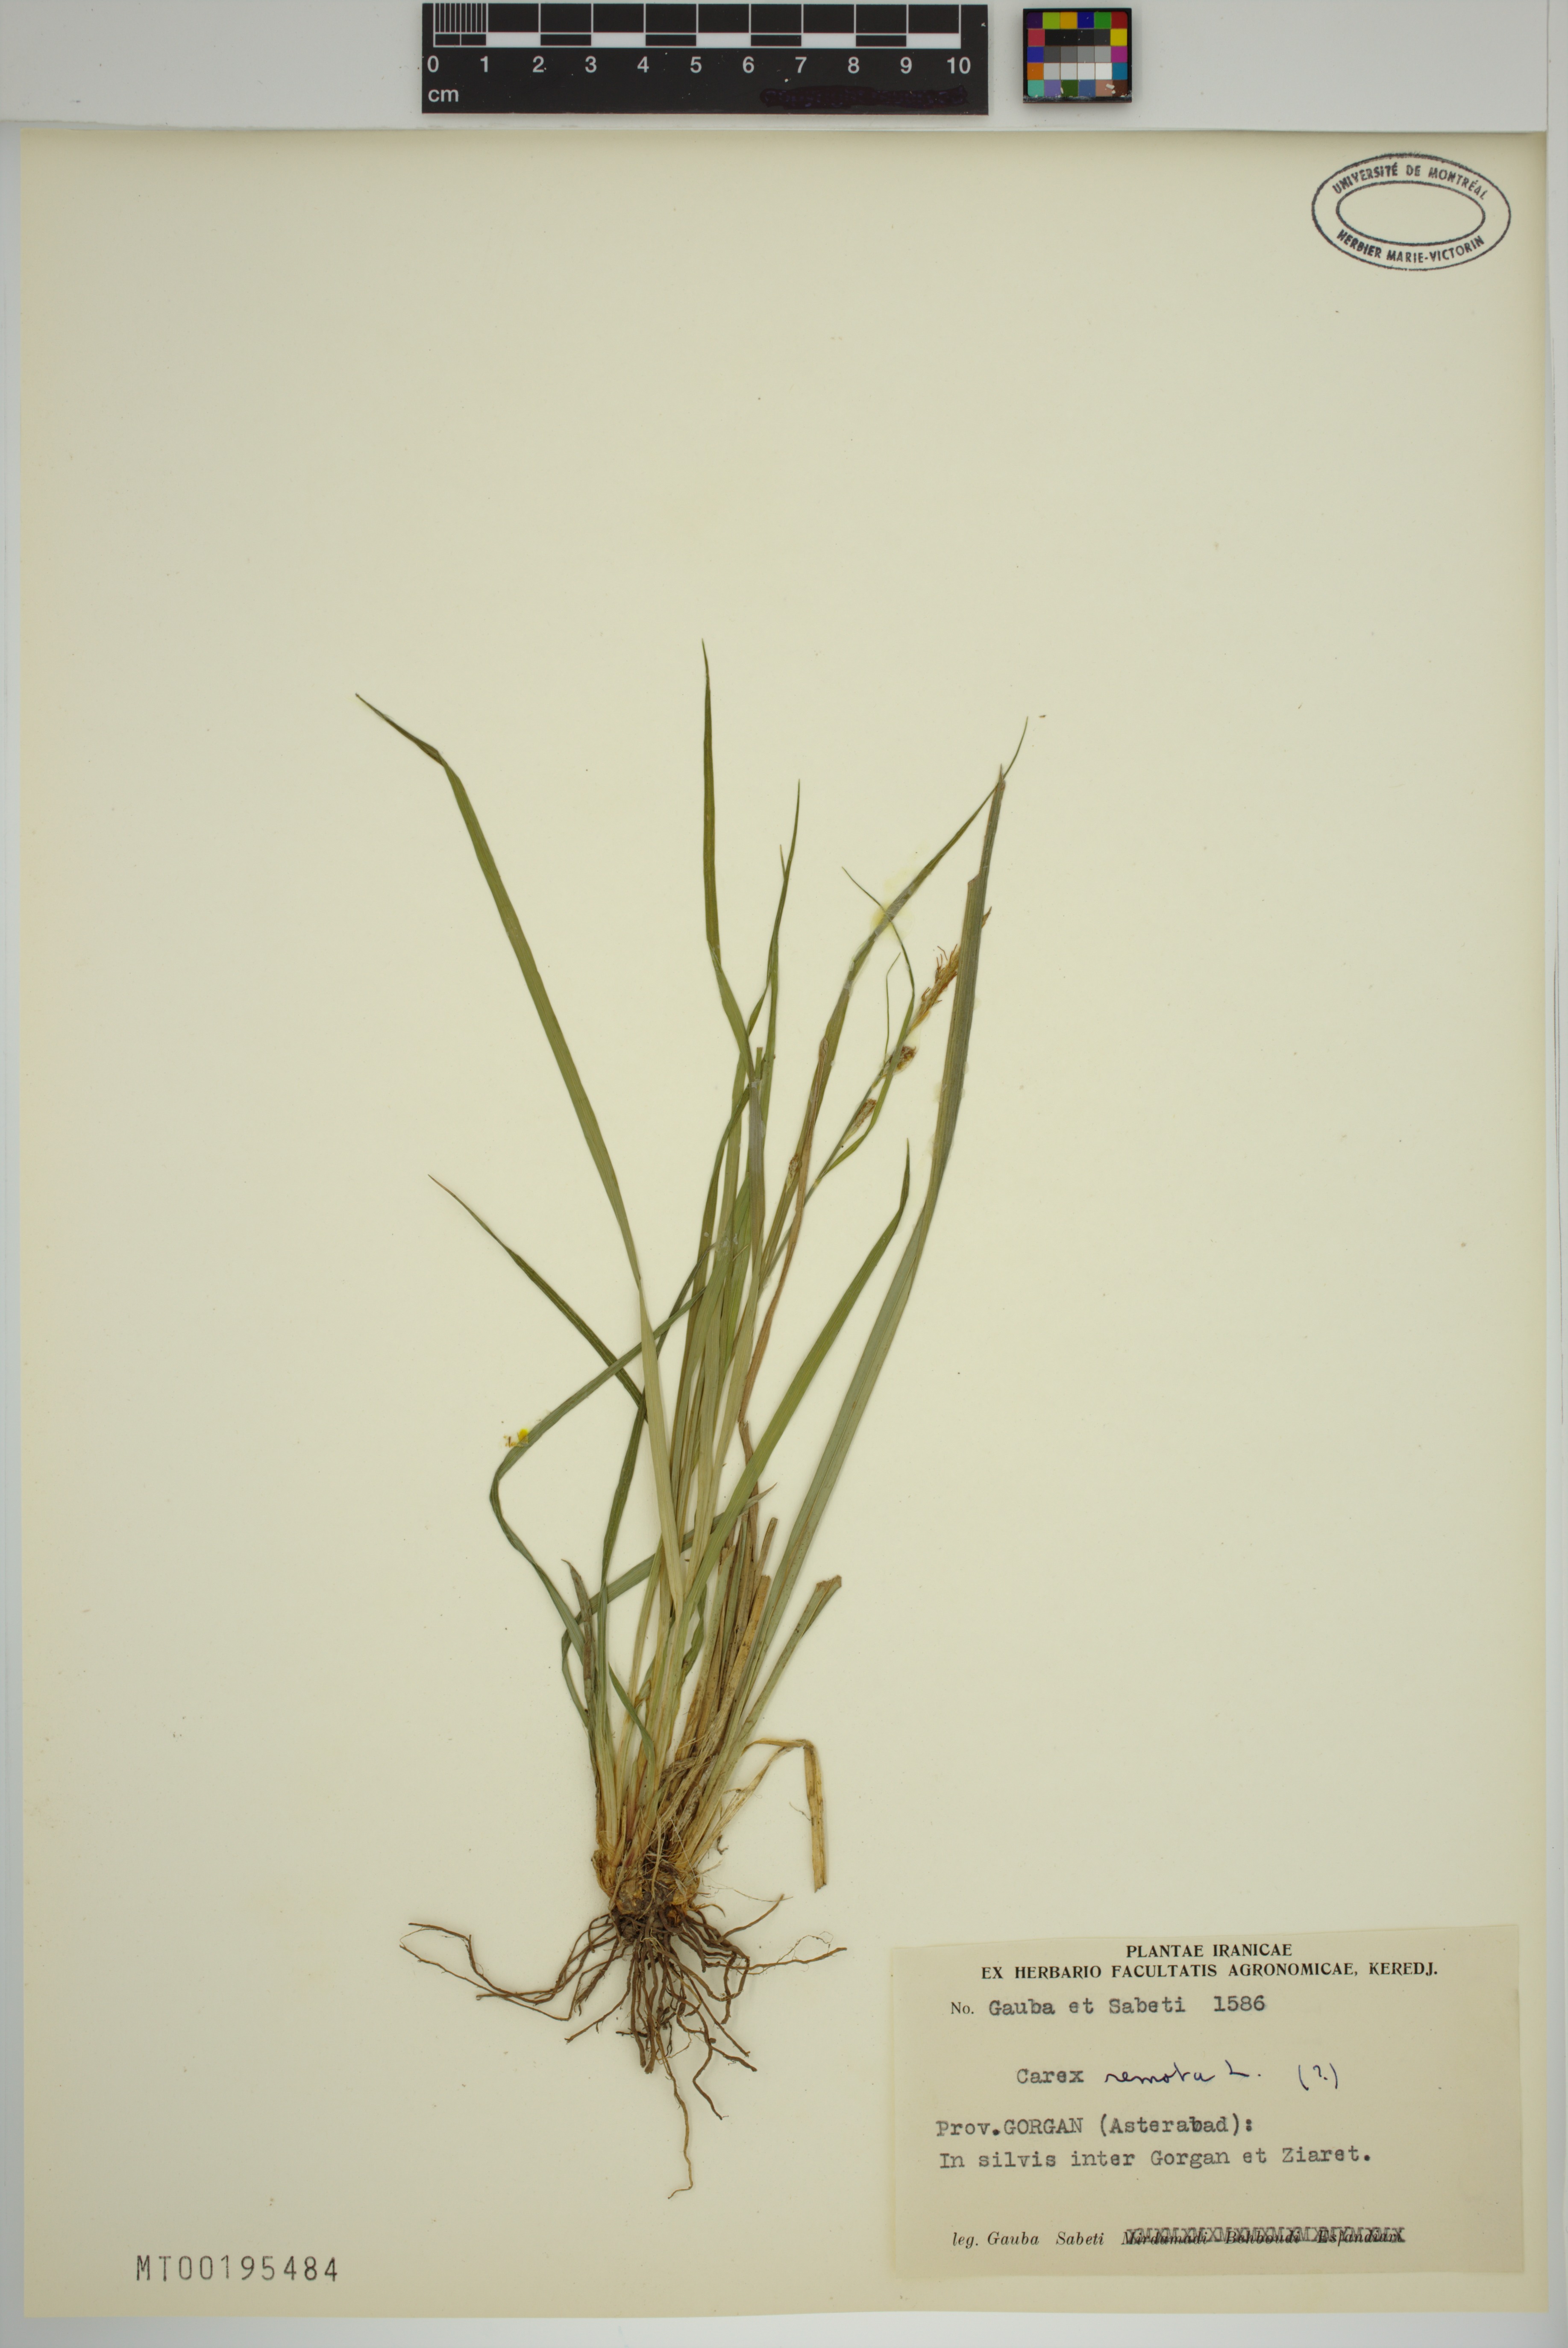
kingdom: Plantae
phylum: Tracheophyta
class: Liliopsida
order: Poales
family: Cyperaceae
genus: Carex
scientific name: Carex remota
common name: Remote sedge
